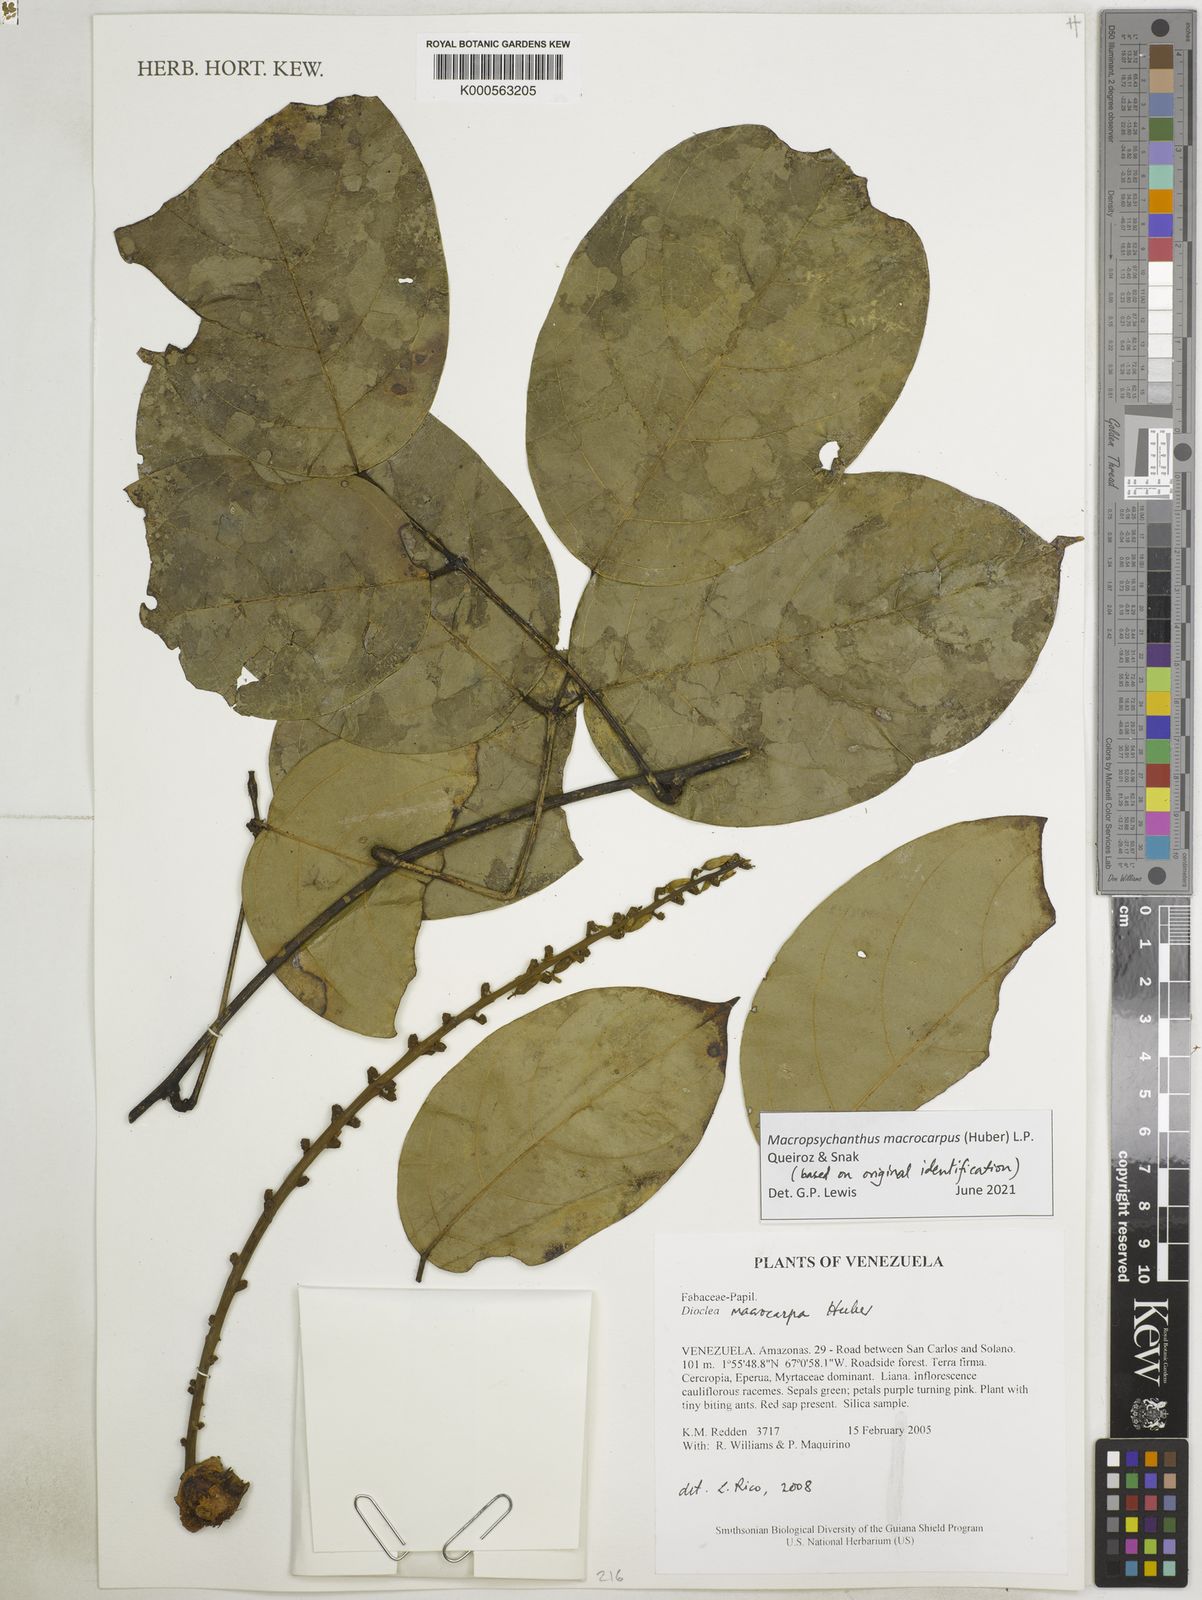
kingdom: Plantae
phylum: Tracheophyta
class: Magnoliopsida
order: Fabales
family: Fabaceae
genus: Macropsychanthus
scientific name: Macropsychanthus macrocarpus
